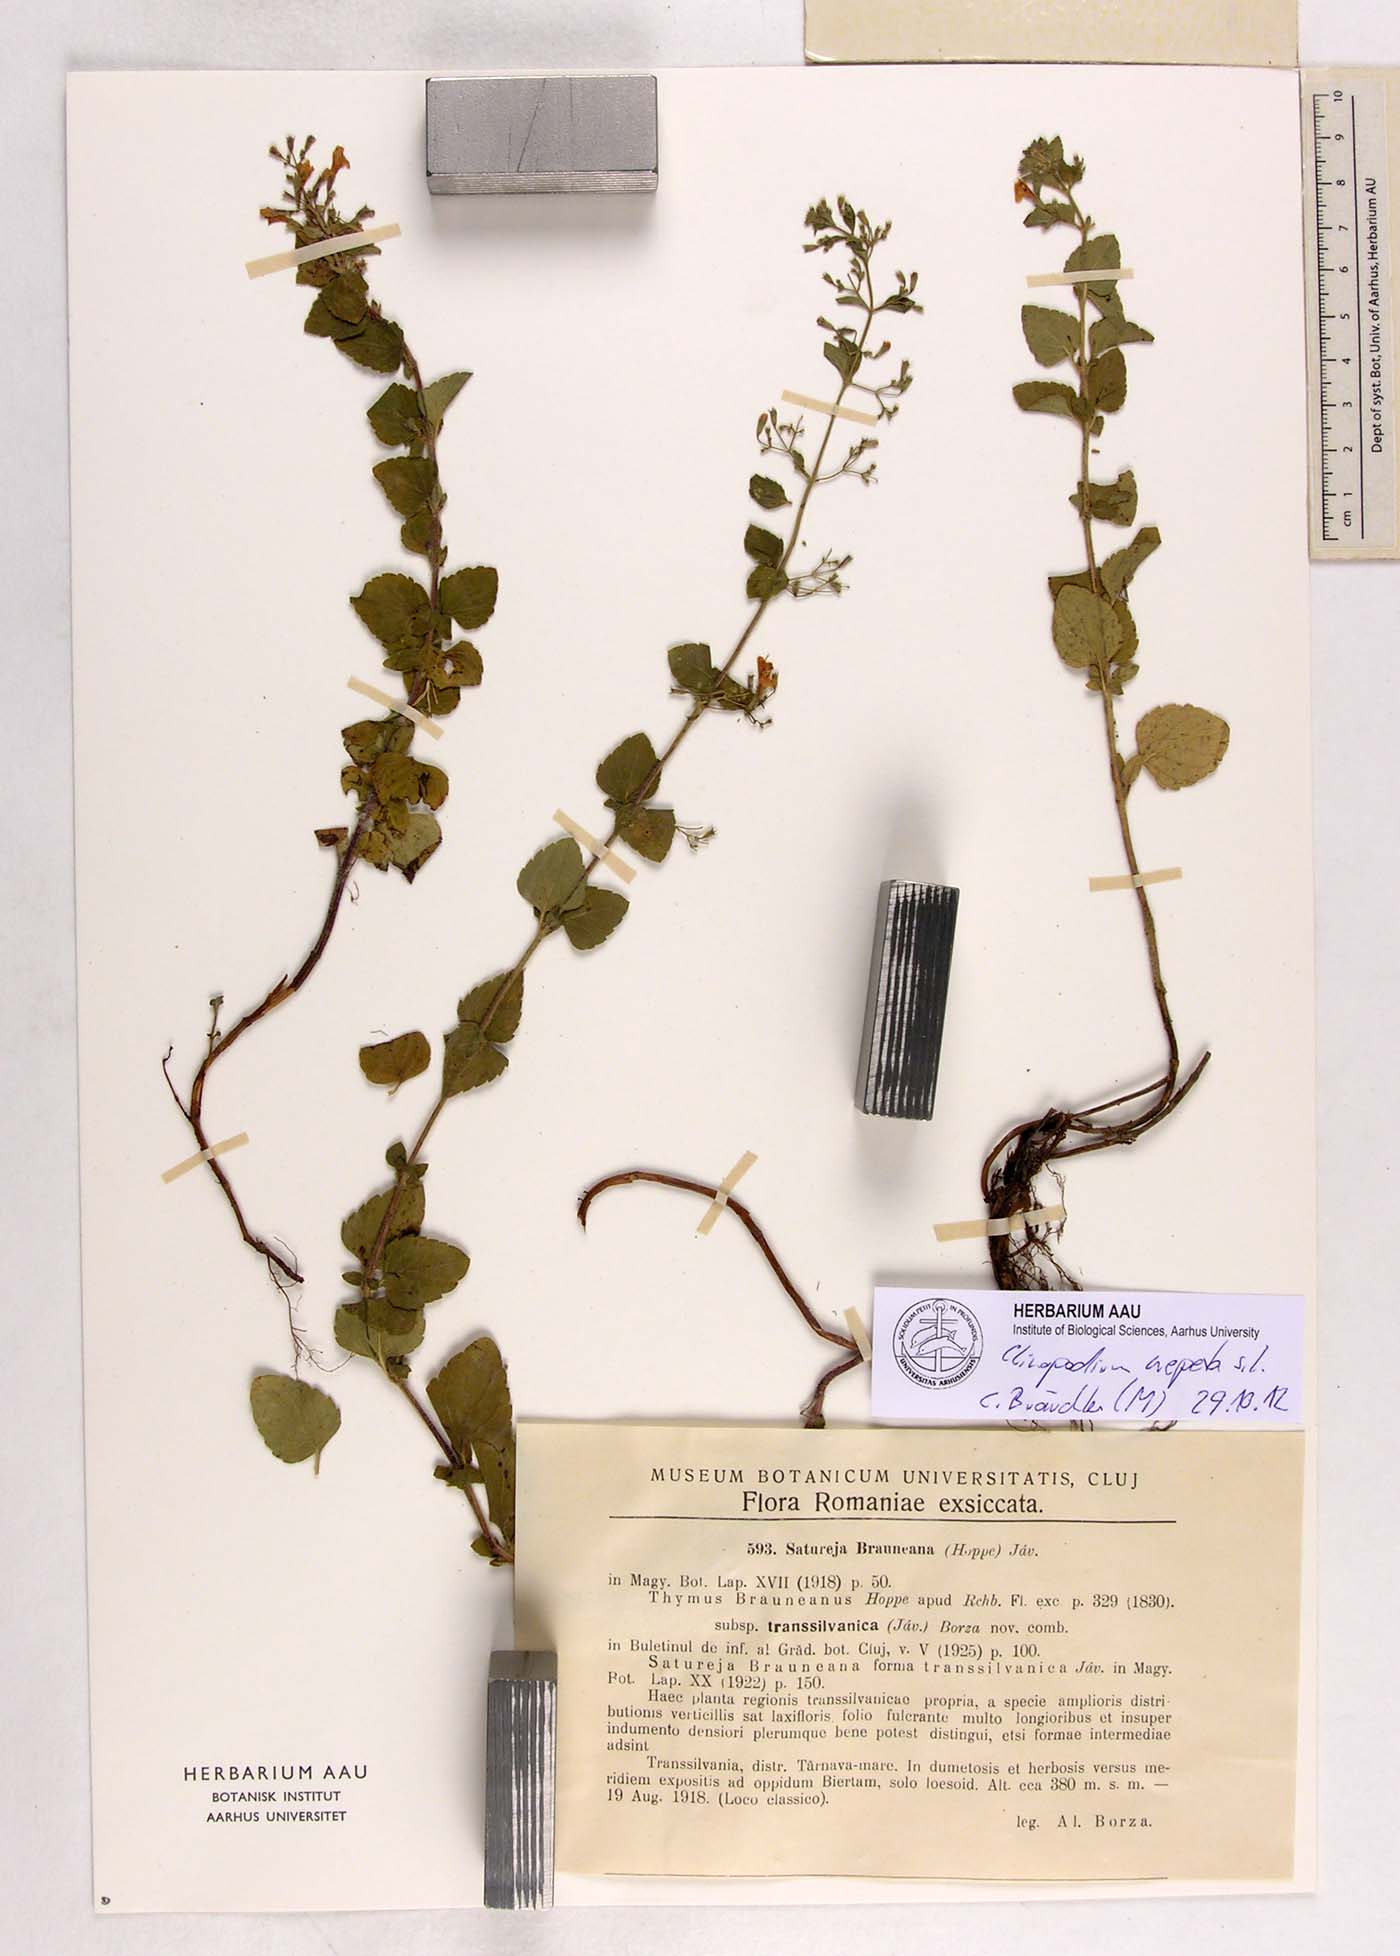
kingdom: Plantae
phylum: Tracheophyta
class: Magnoliopsida
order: Lamiales
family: Lamiaceae
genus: Clinopodium
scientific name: Clinopodium nepeta
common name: Lesser calamint
